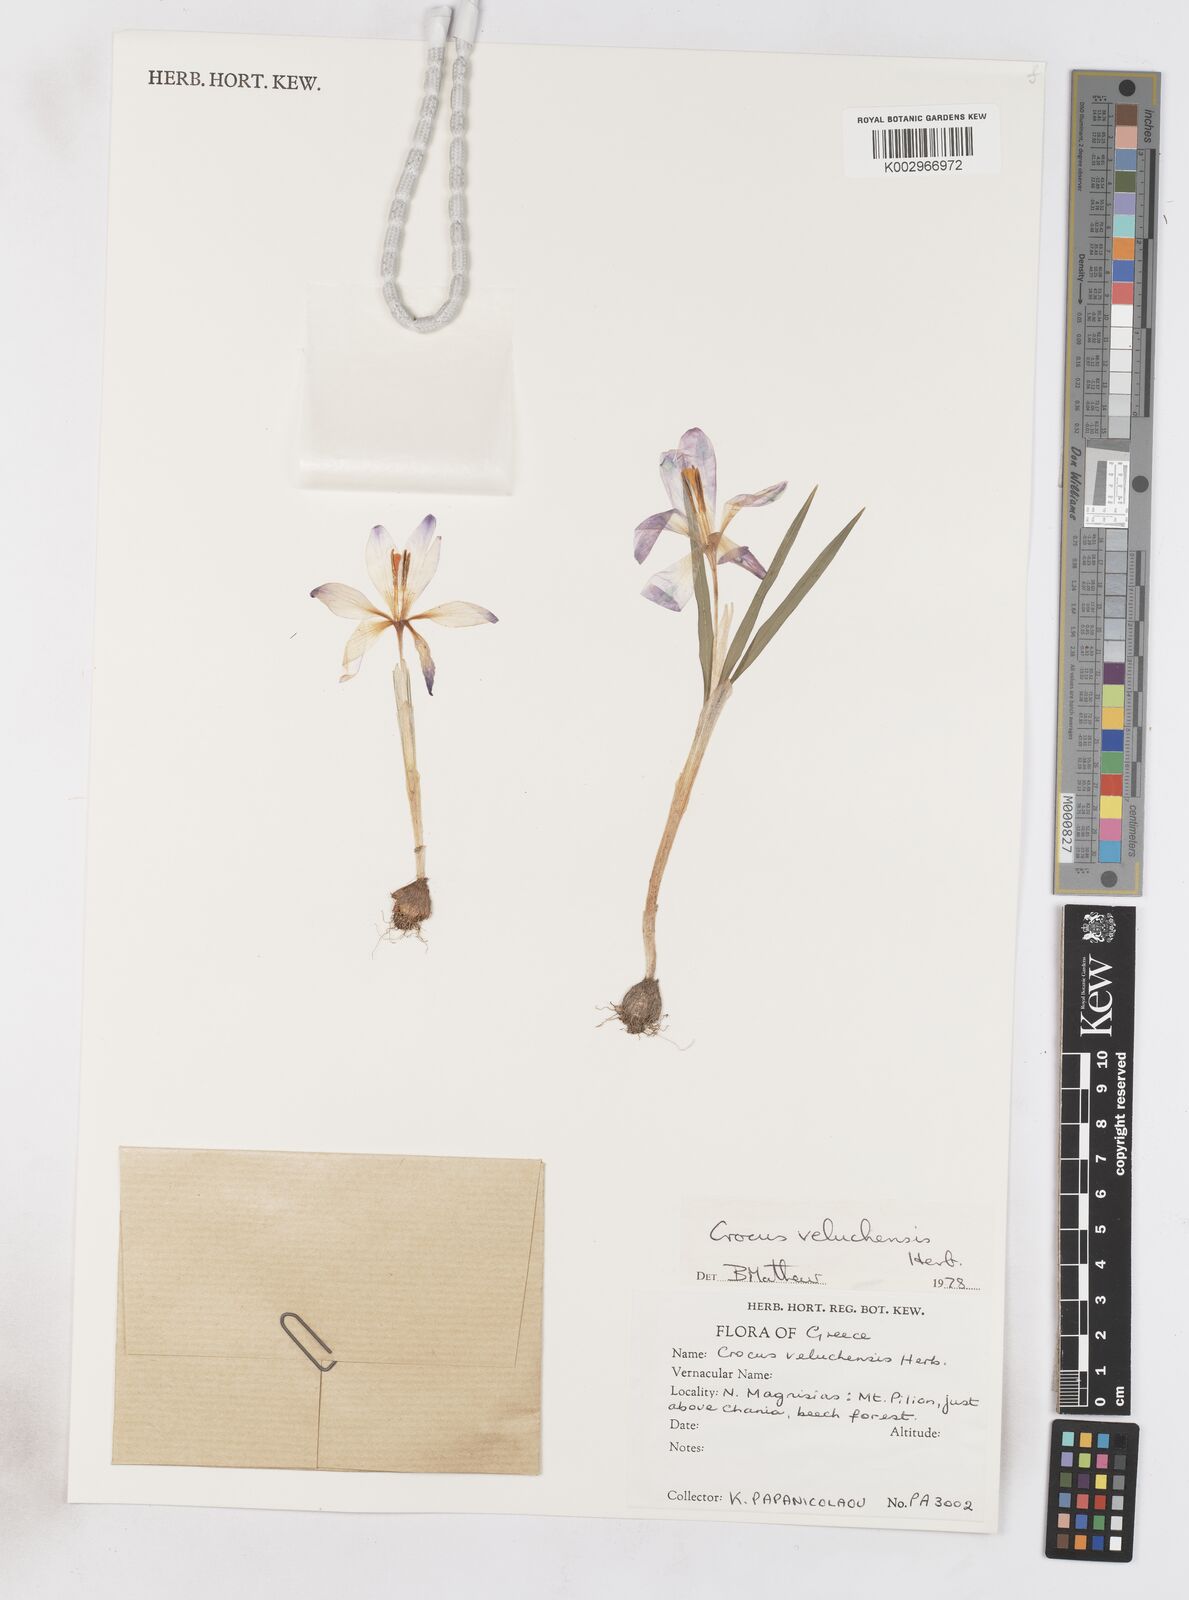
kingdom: Plantae
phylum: Tracheophyta
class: Liliopsida
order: Asparagales
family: Iridaceae
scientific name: Iridaceae
